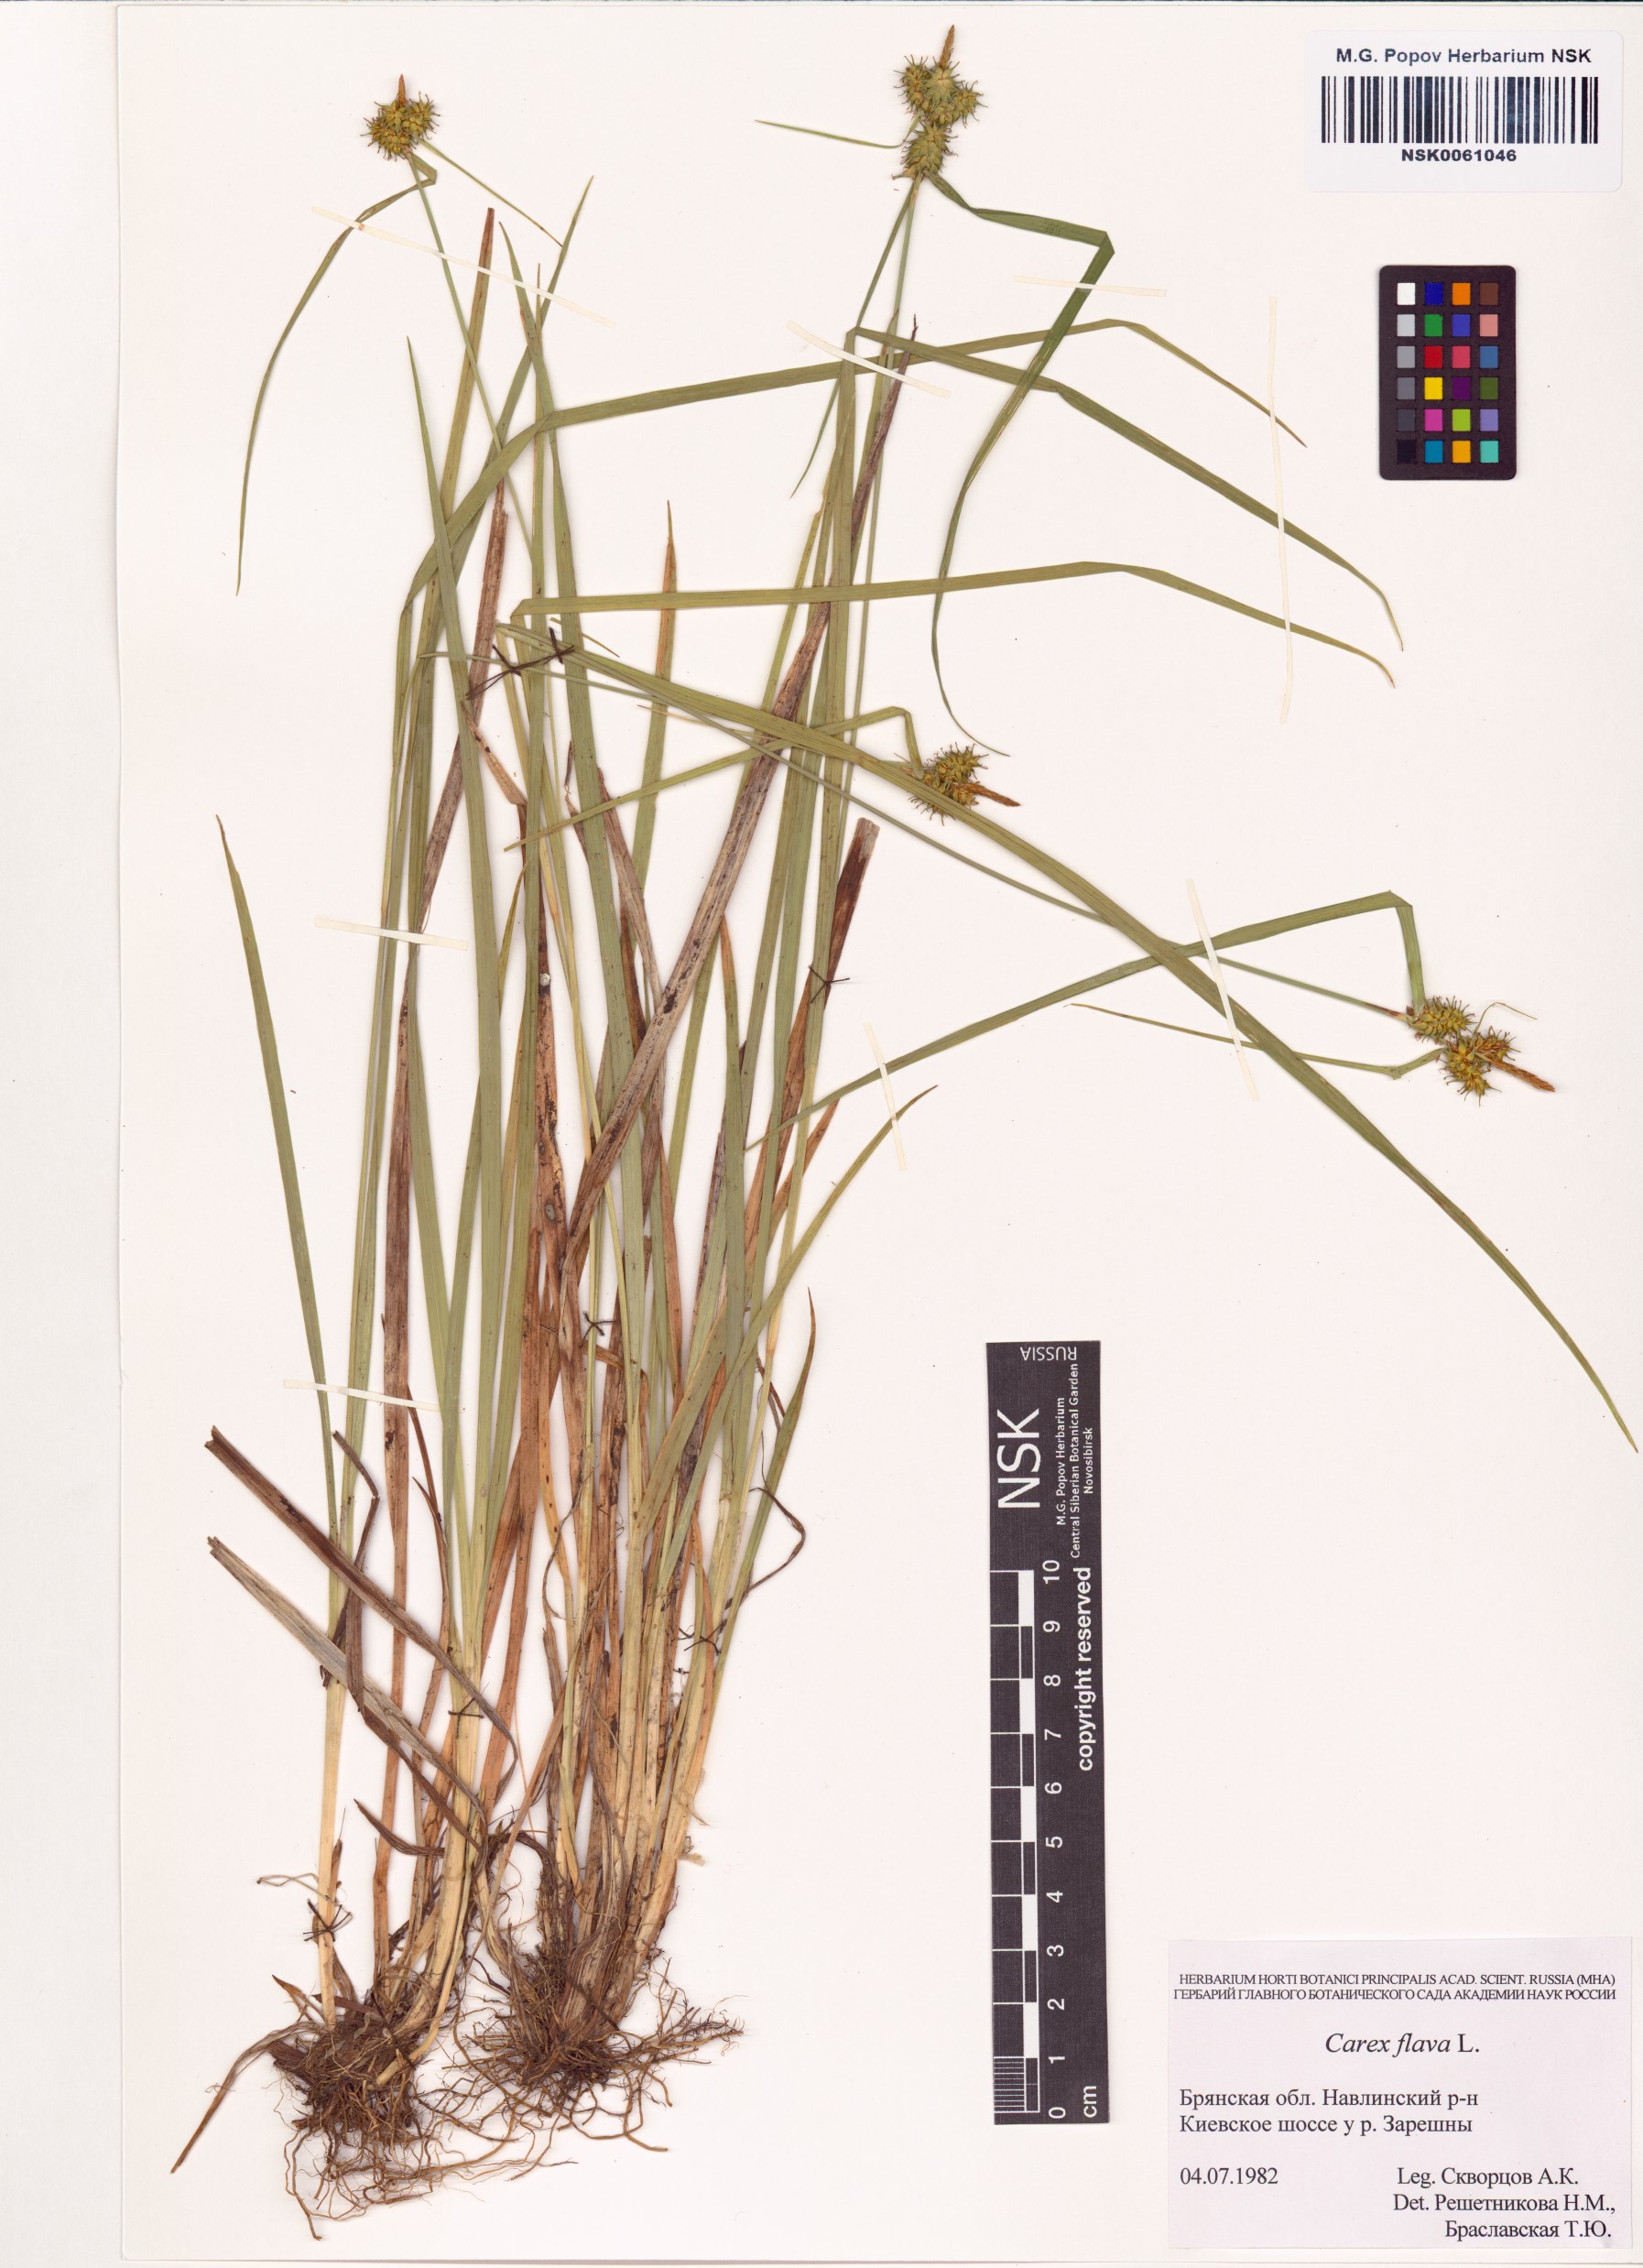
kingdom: Plantae
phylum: Tracheophyta
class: Liliopsida
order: Poales
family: Cyperaceae
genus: Carex
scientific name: Carex flava
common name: Large yellow-sedge
